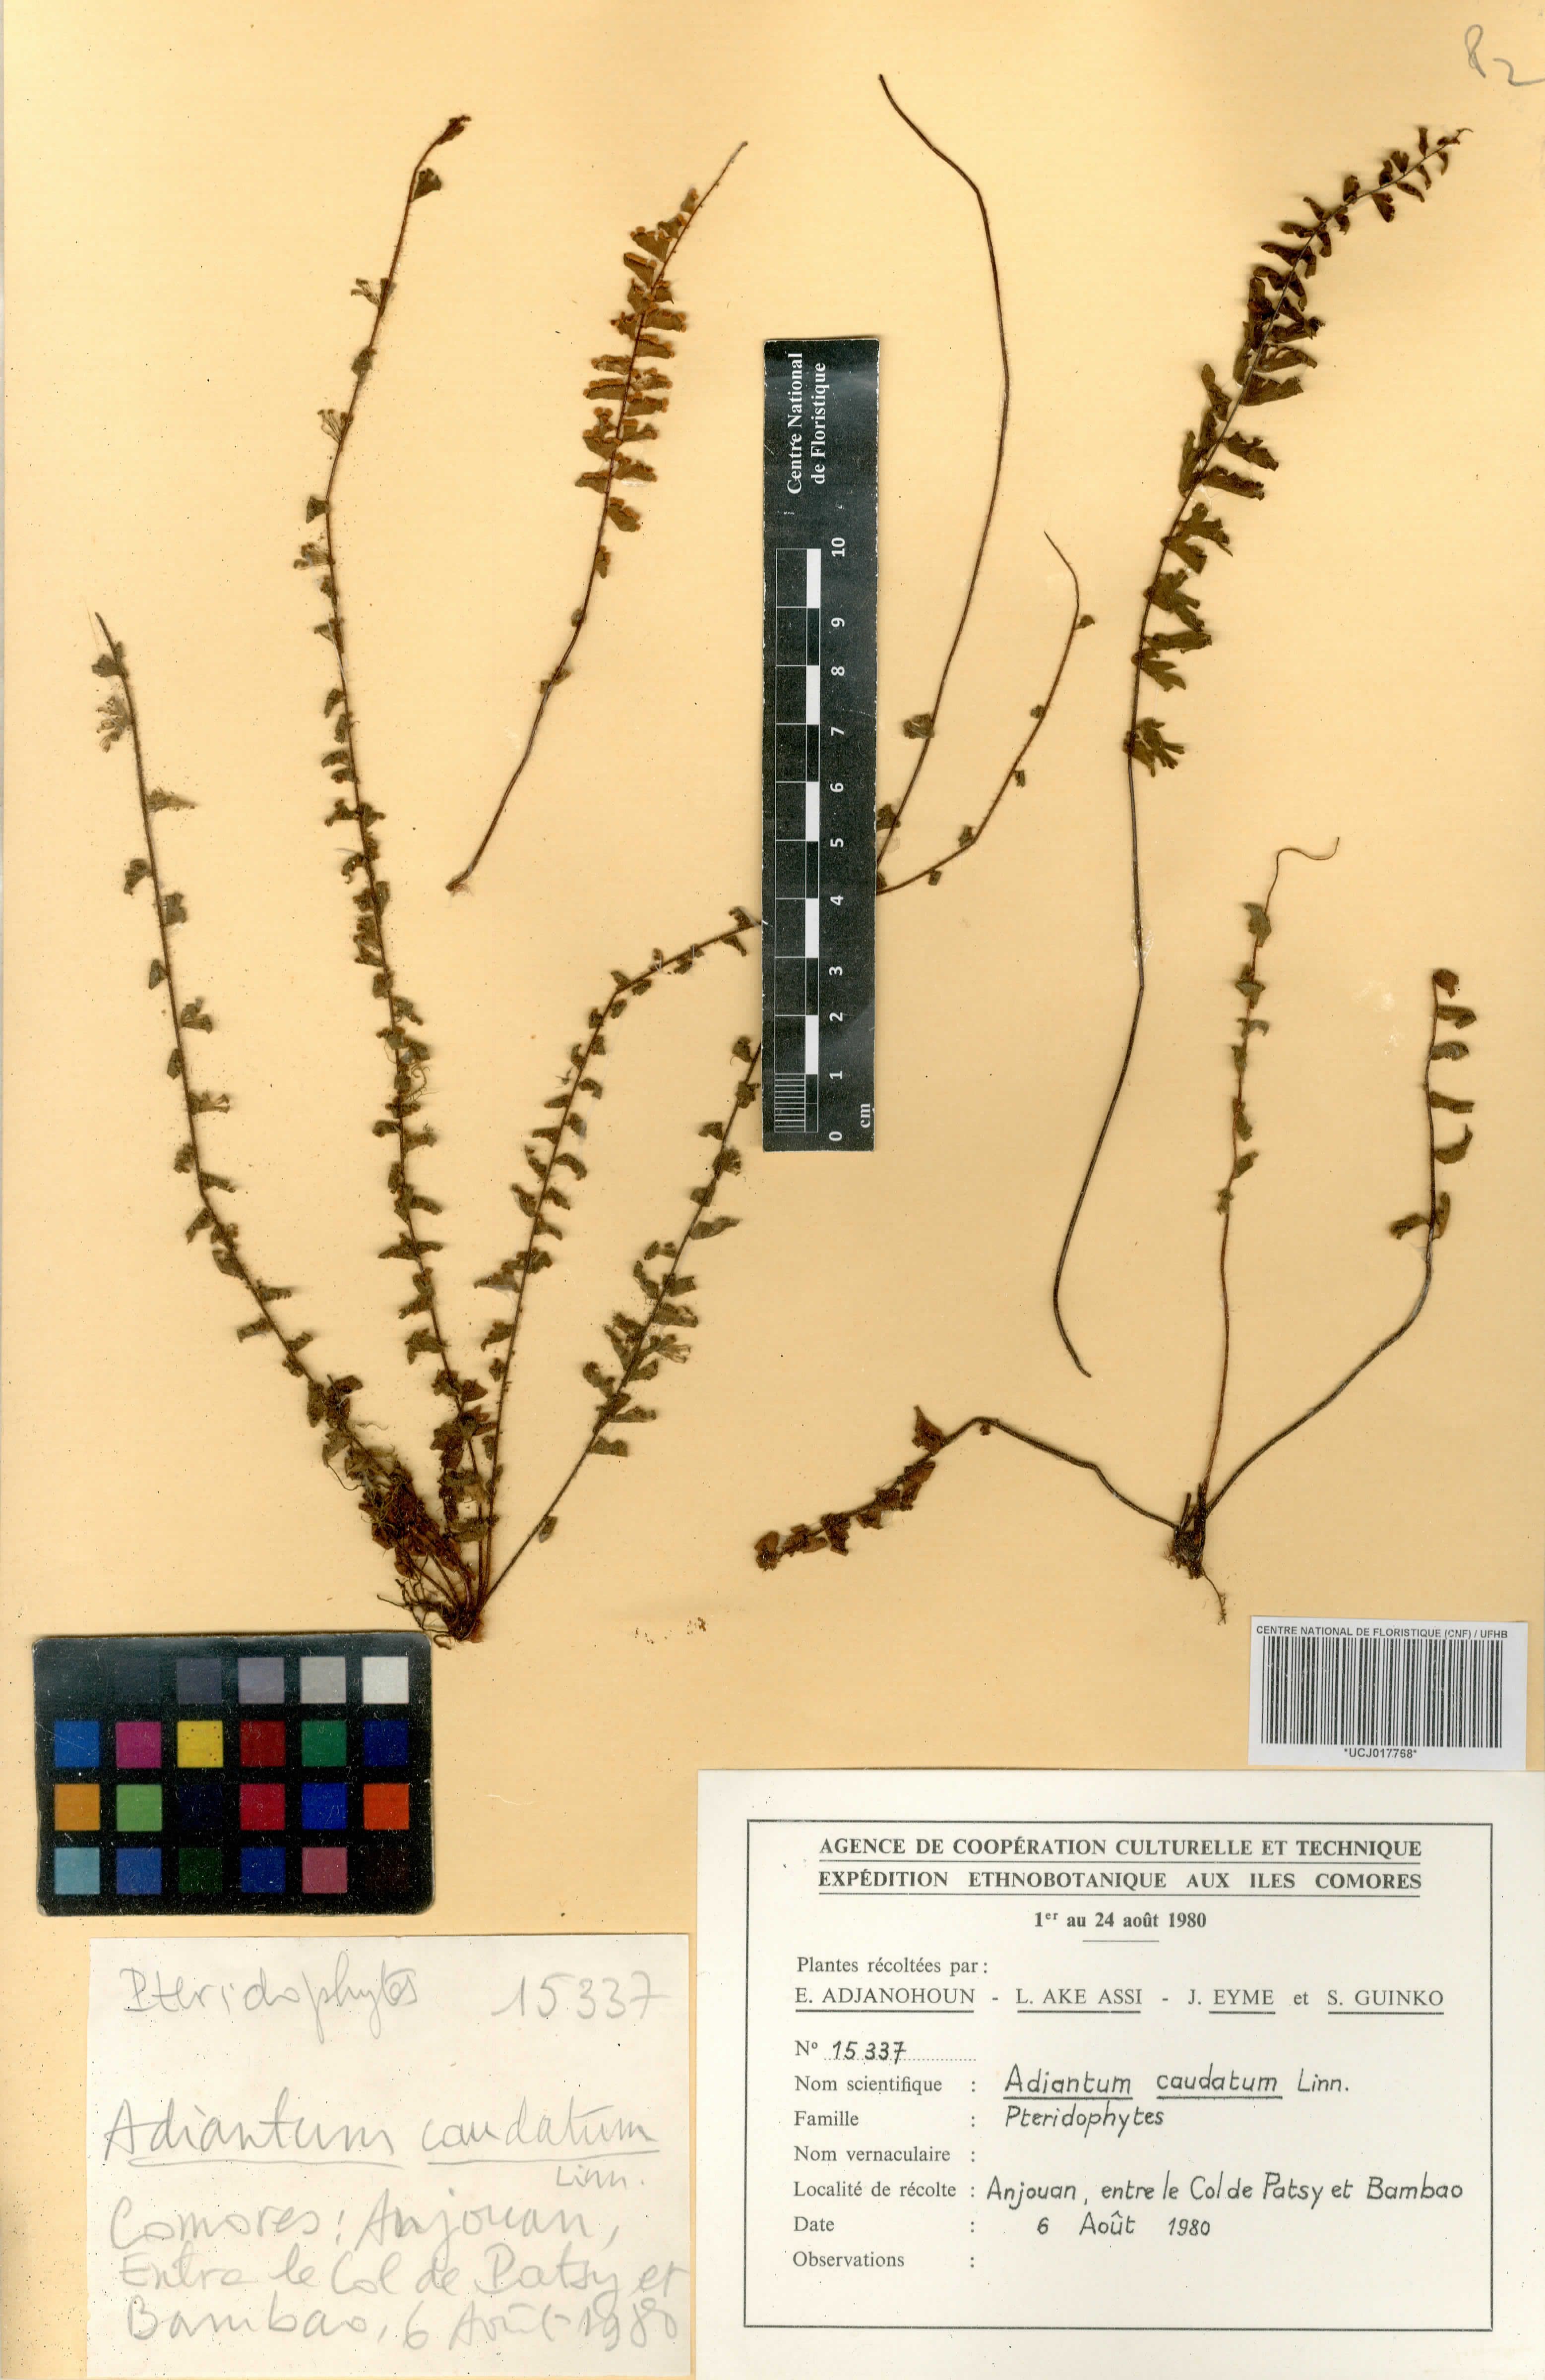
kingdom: Plantae
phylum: Tracheophyta
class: Polypodiopsida
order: Polypodiales
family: Pteridaceae
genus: Adiantum
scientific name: Adiantum caudatum
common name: Tailed maidenhair
